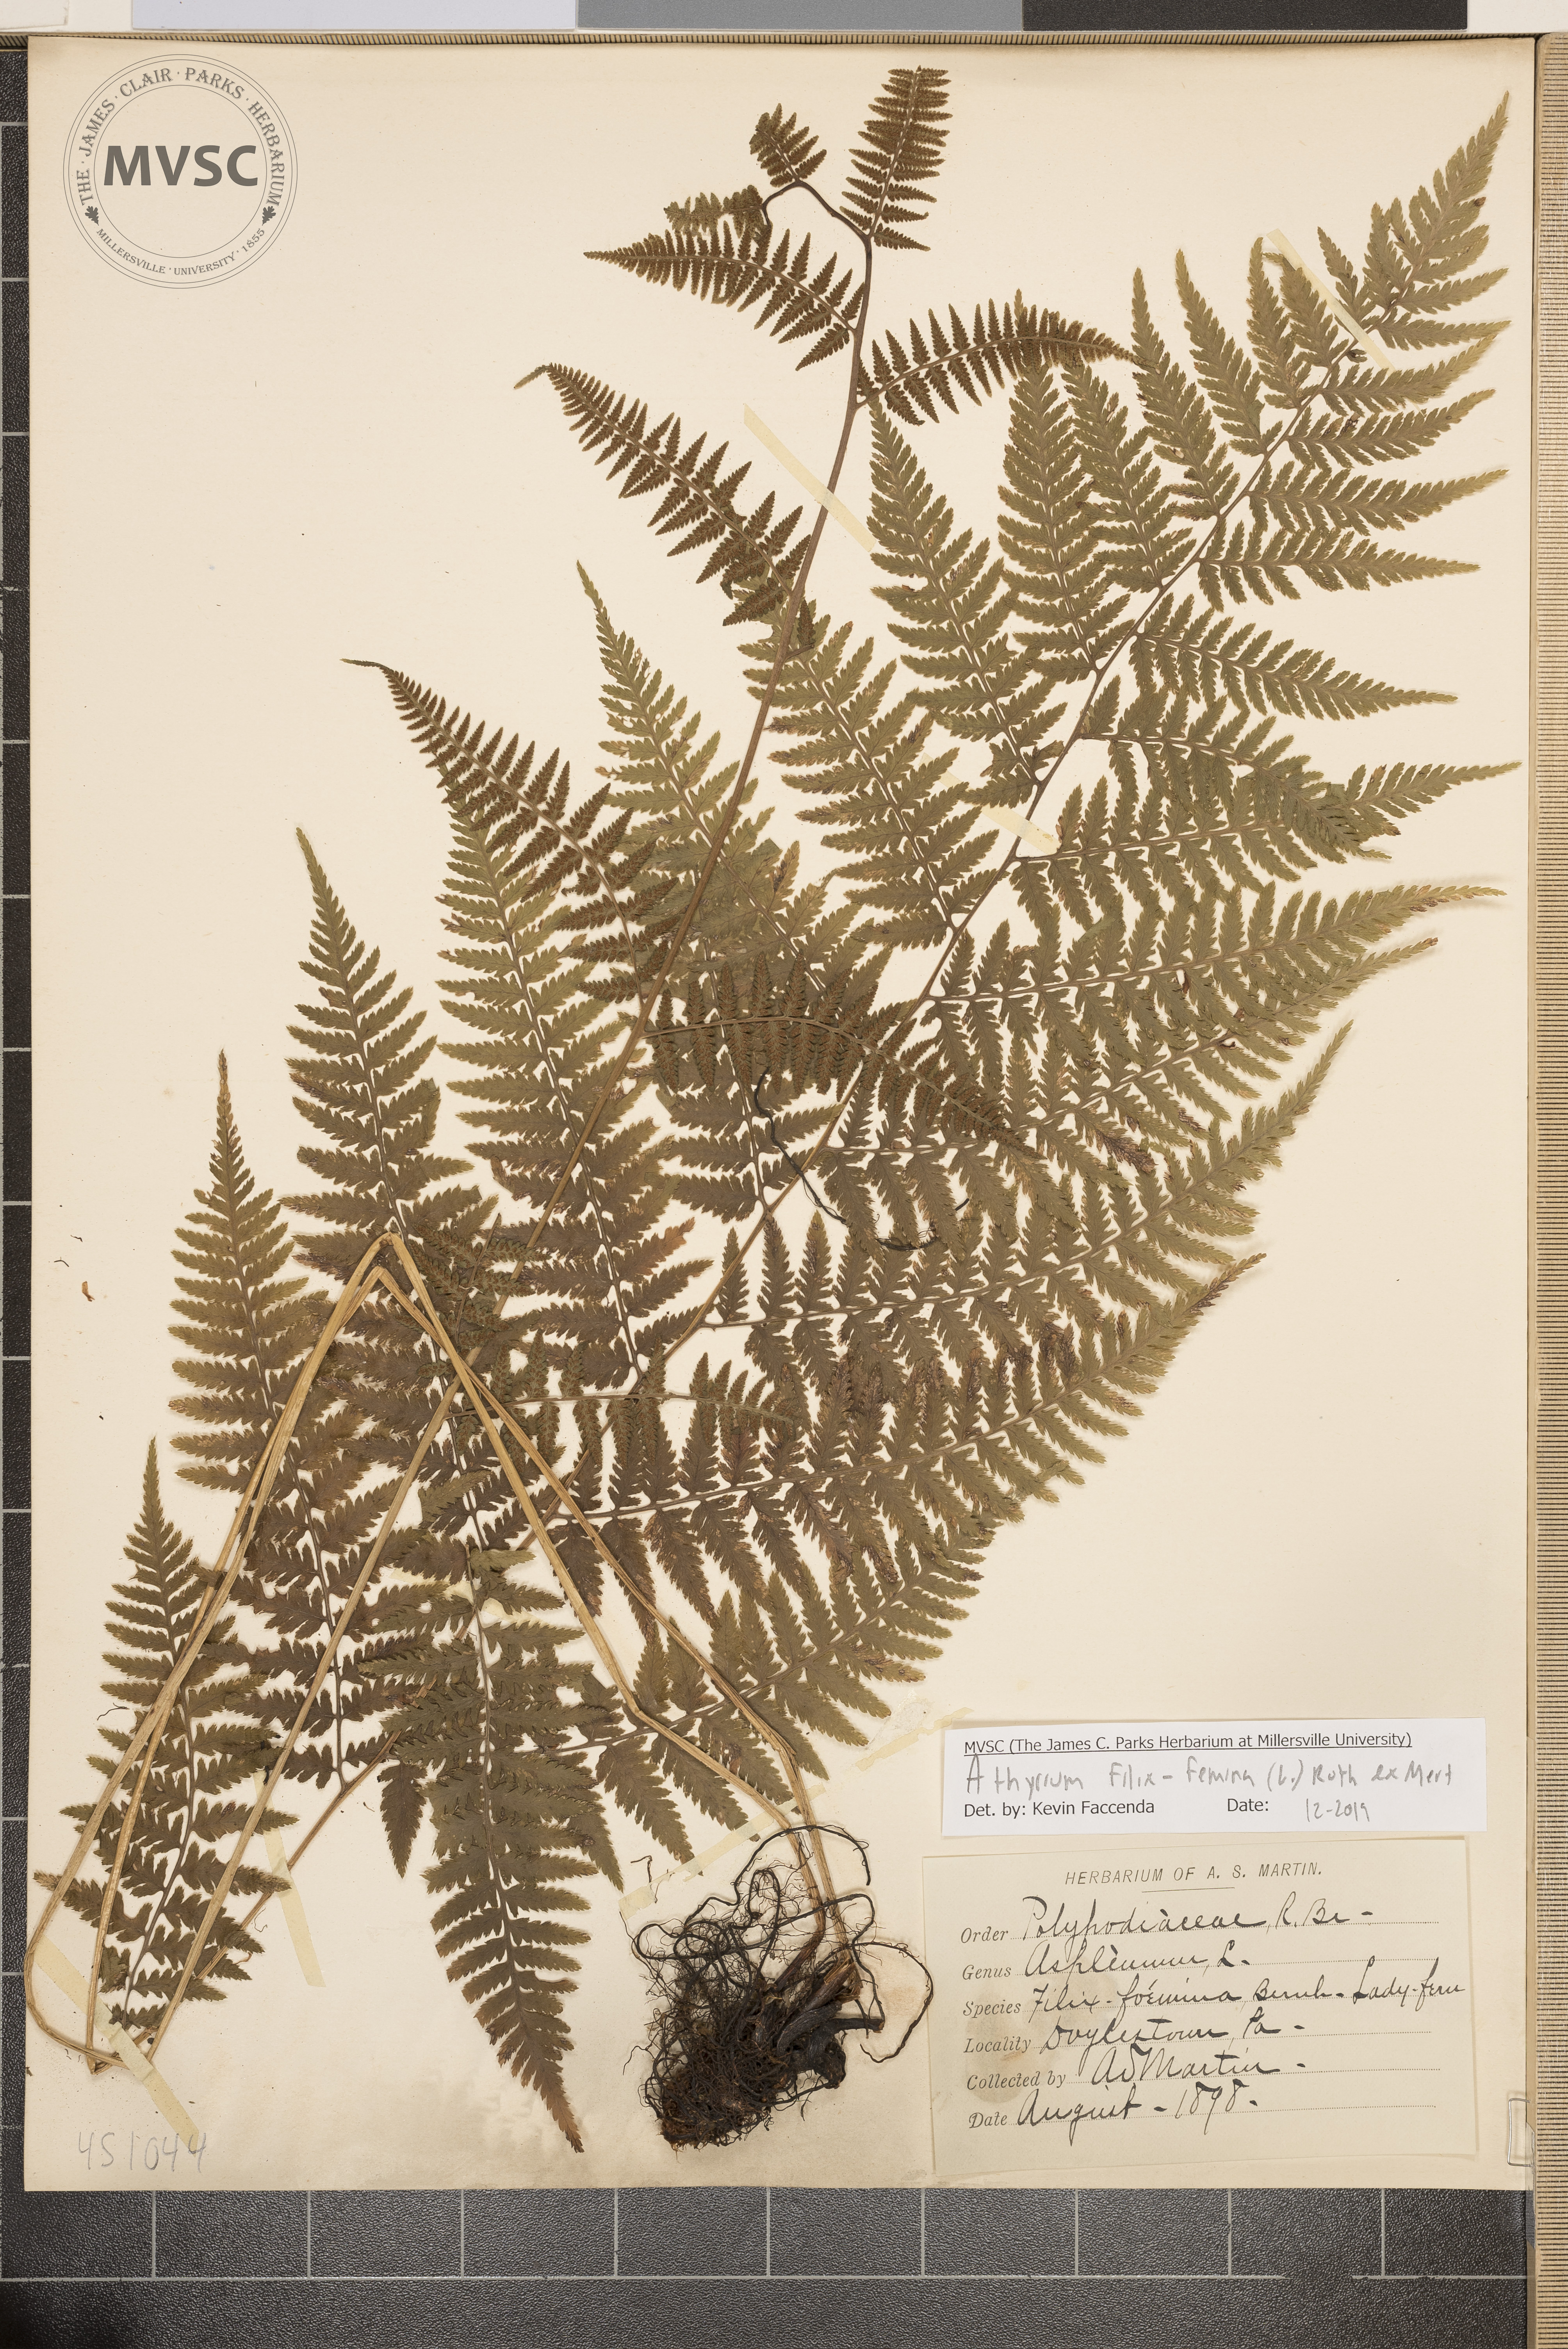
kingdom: Plantae
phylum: Tracheophyta
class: Polypodiopsida
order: Polypodiales
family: Athyriaceae
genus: Athyrium
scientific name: Athyrium filix-femina
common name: Lady Fern
